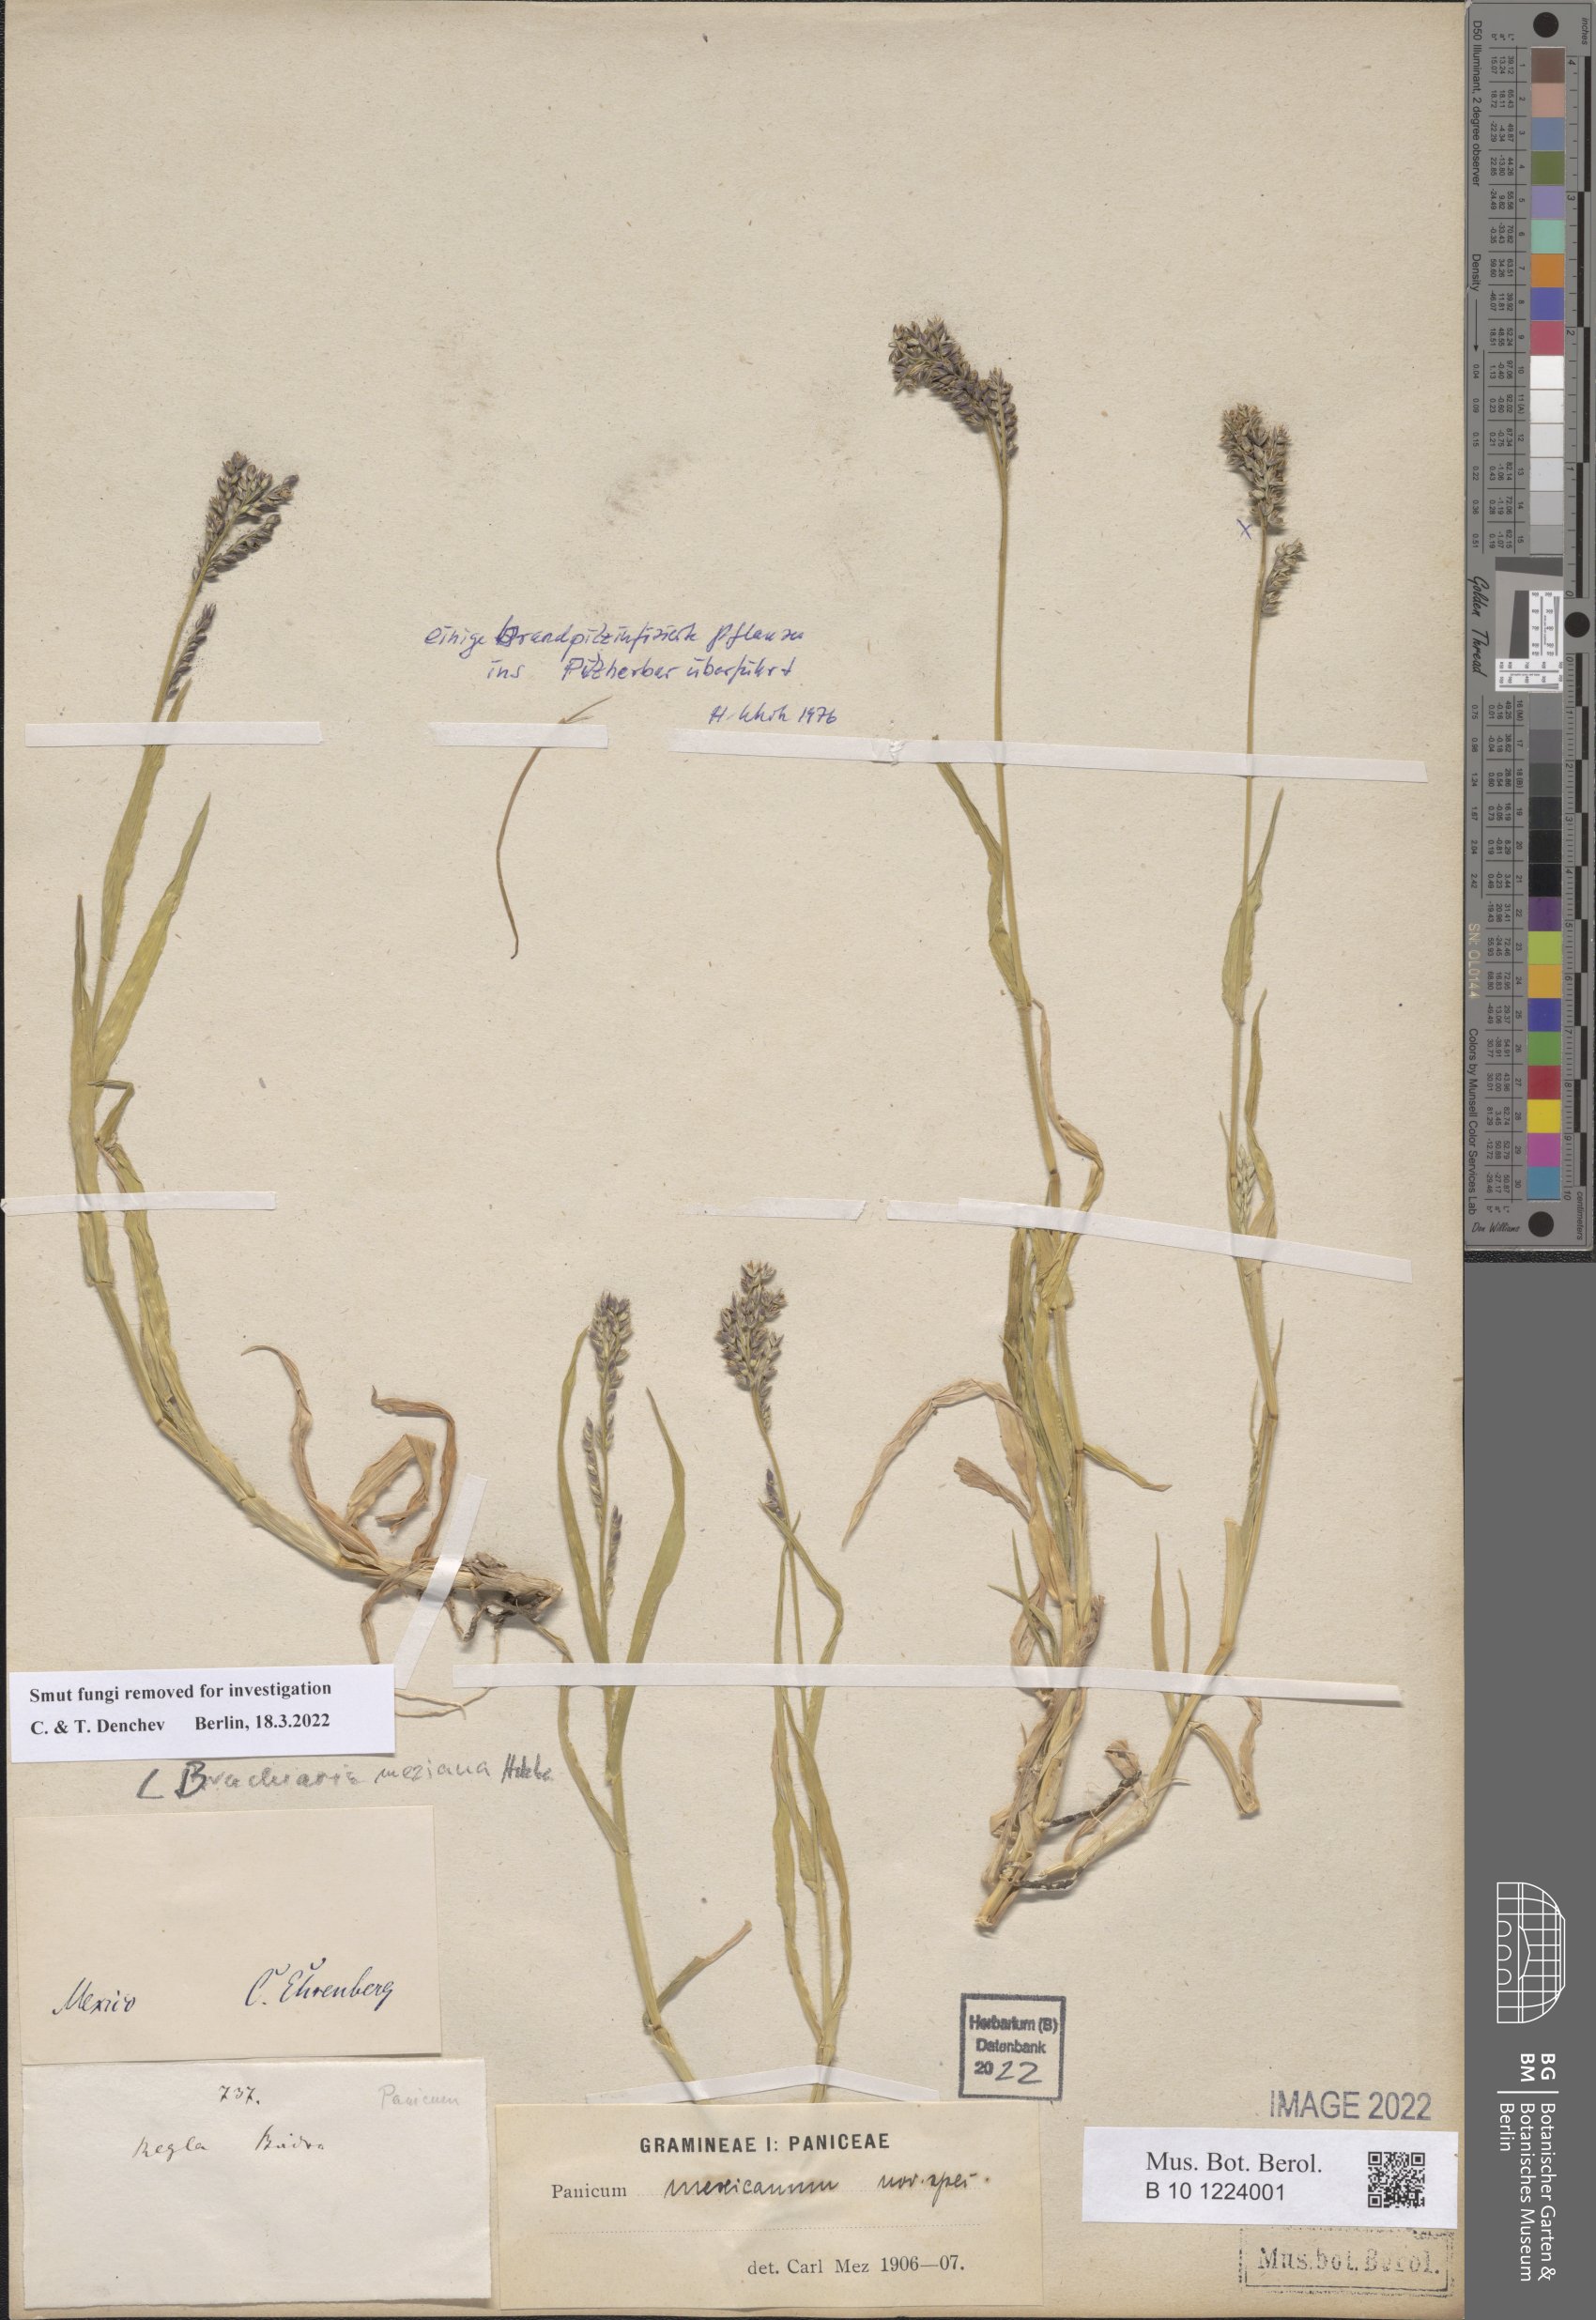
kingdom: Plantae
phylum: Tracheophyta
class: Liliopsida
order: Poales
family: Poaceae
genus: Urochloa
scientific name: Urochloa meziana
